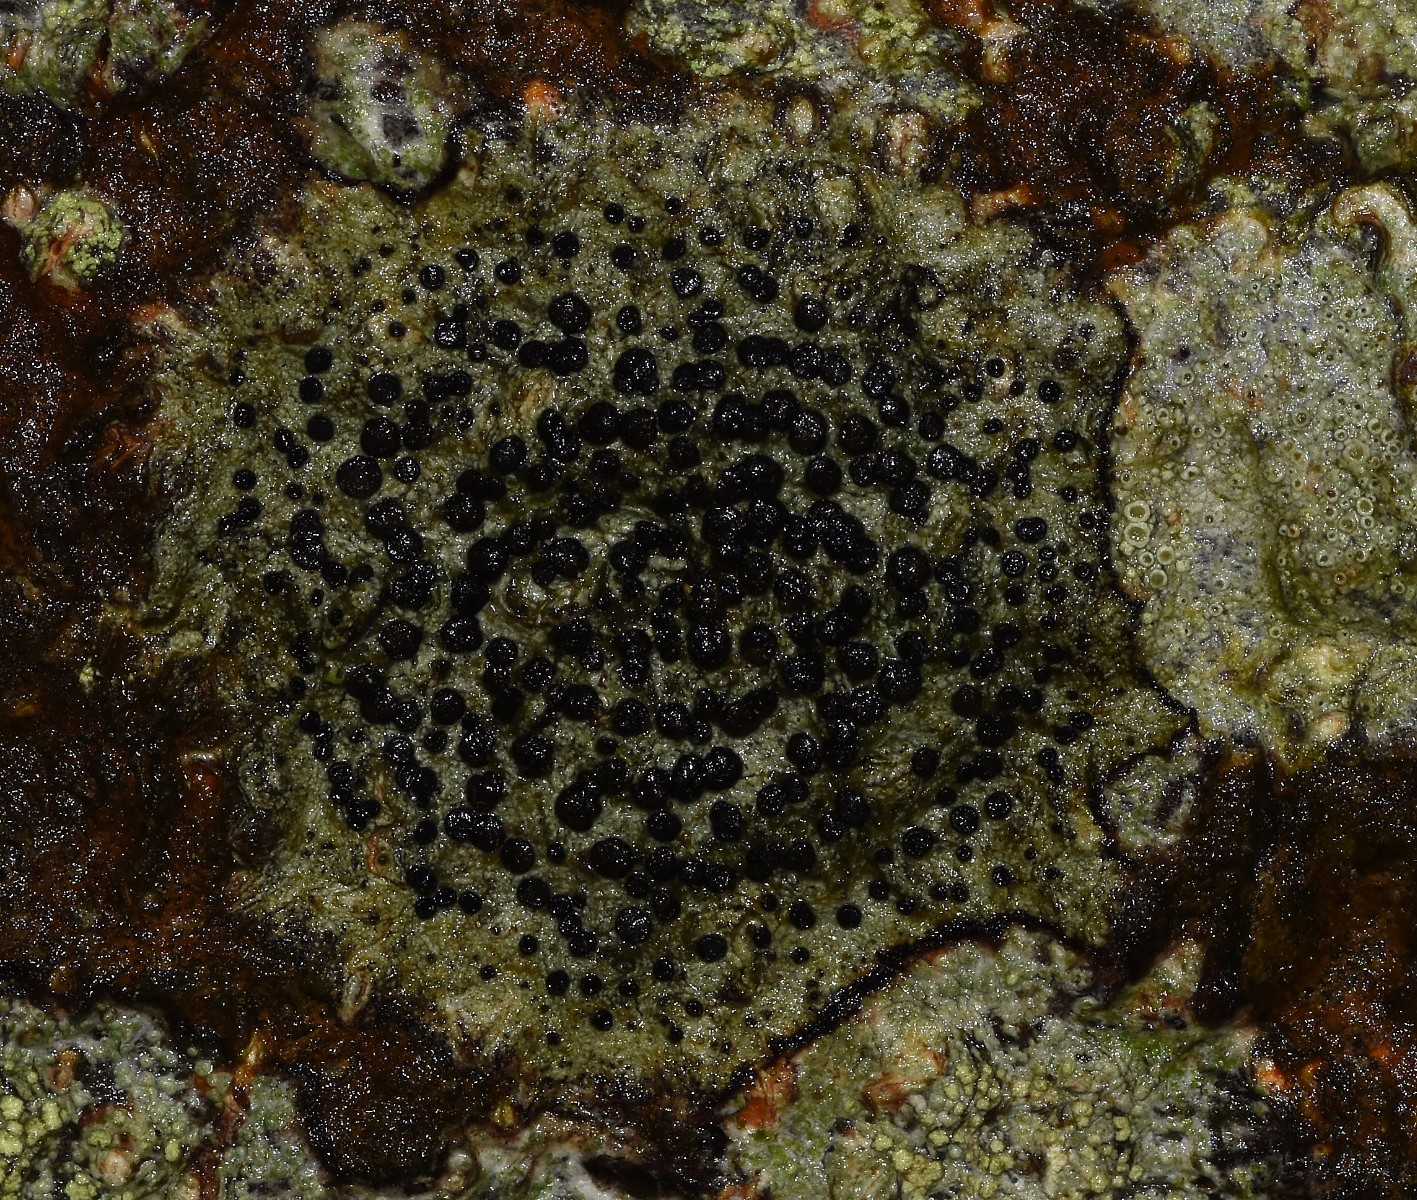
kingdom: Fungi
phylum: Ascomycota
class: Lecanoromycetes
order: Lecanorales
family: Lecanoraceae
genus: Lecidella
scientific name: Lecidella elaeochroma
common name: grågrøn skivelav
